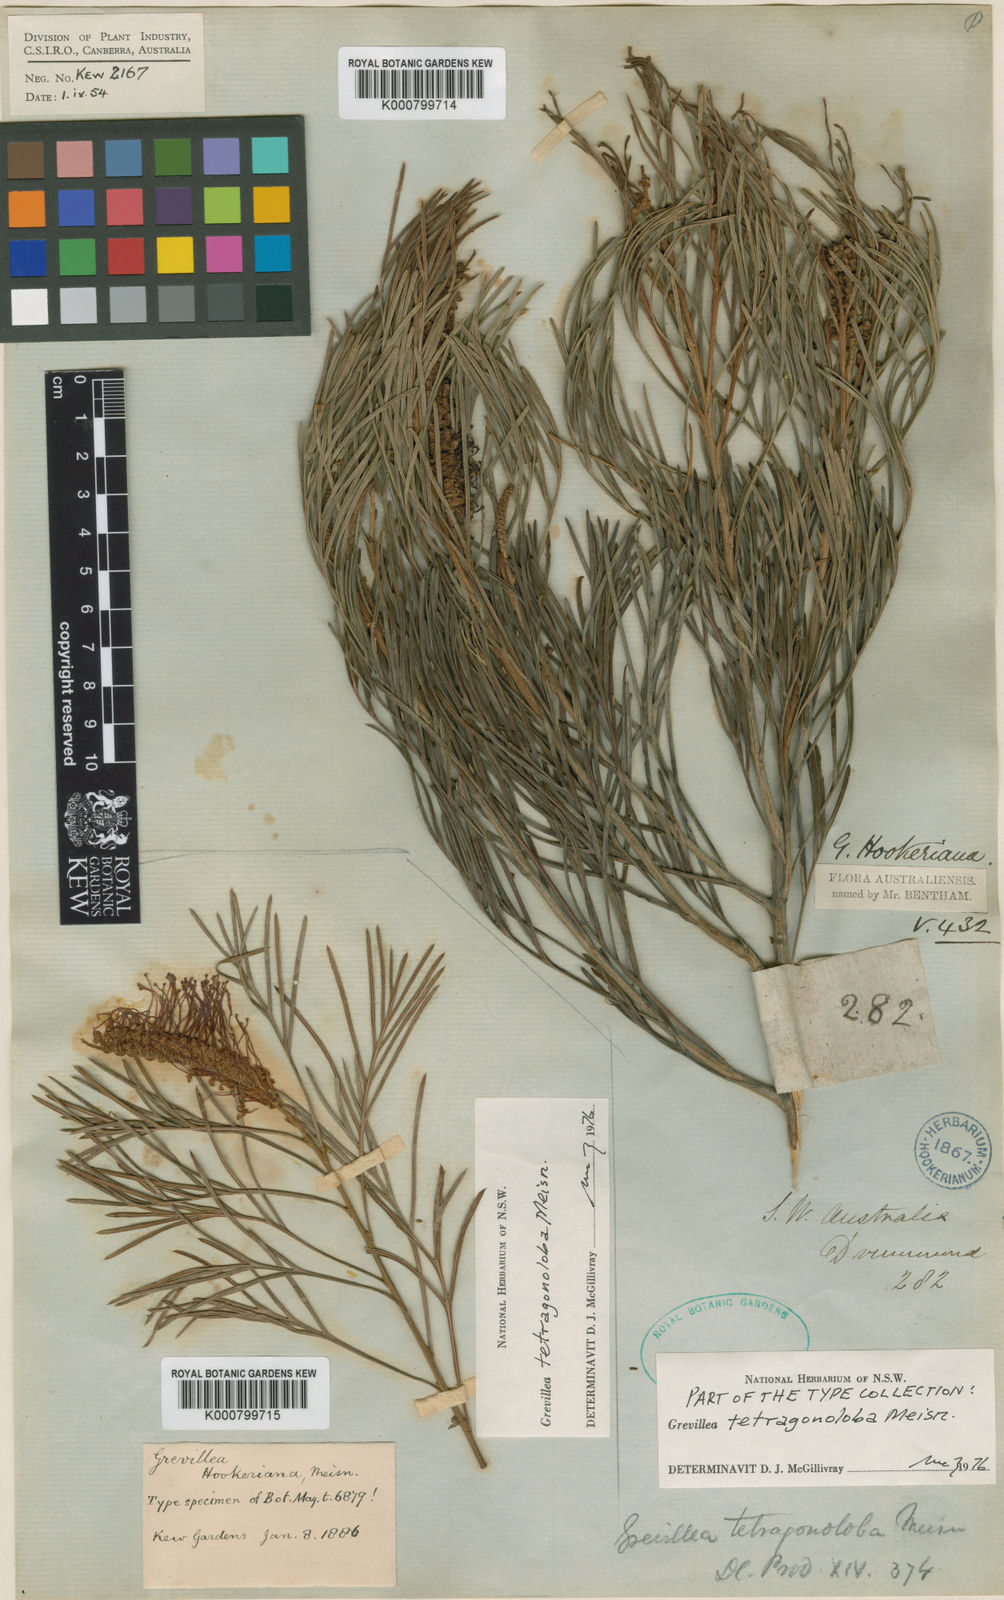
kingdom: Plantae
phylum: Tracheophyta
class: Magnoliopsida
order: Proteales
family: Proteaceae
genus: Grevillea
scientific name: Grevillea tetragonoloba
